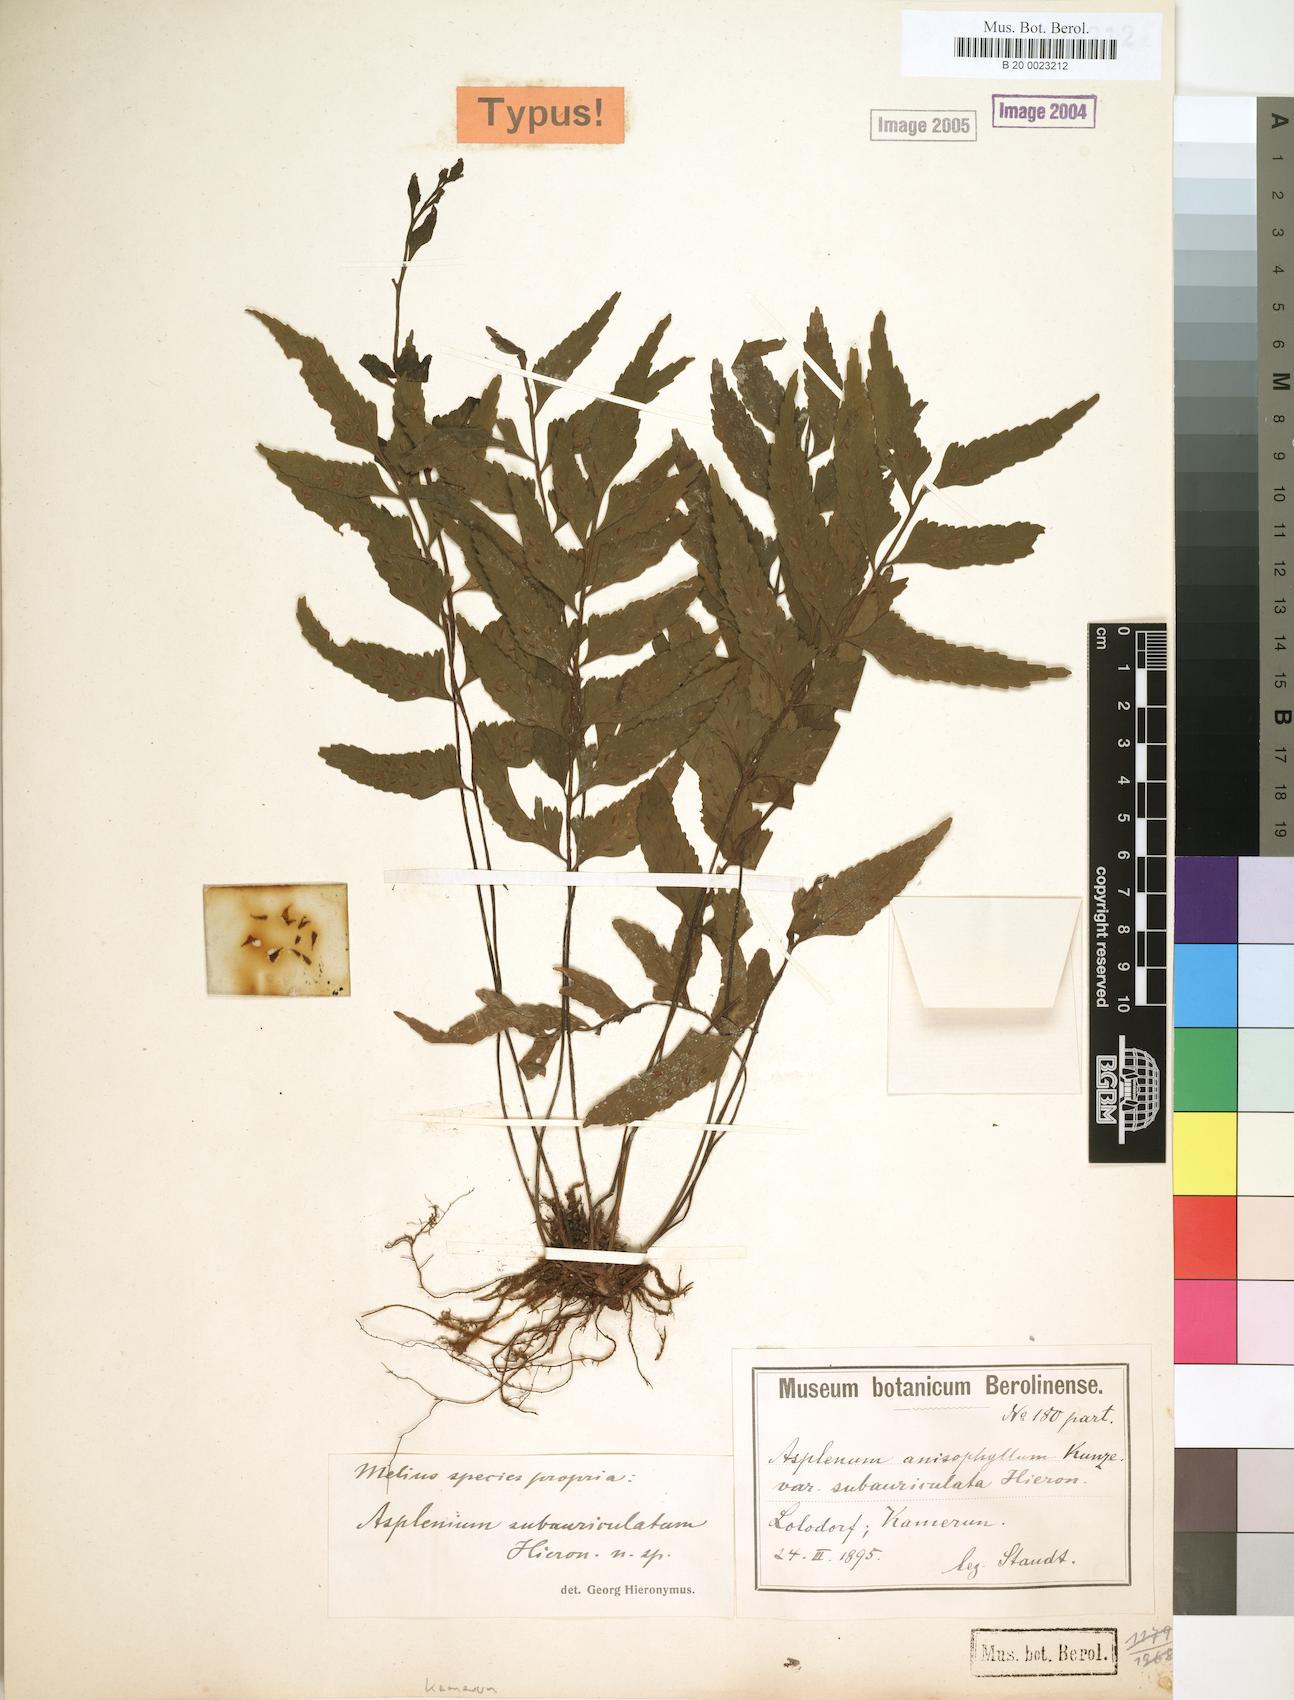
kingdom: Plantae
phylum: Tracheophyta
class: Polypodiopsida
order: Polypodiales
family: Aspleniaceae
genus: Asplenium
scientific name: Asplenium anisophyllum
